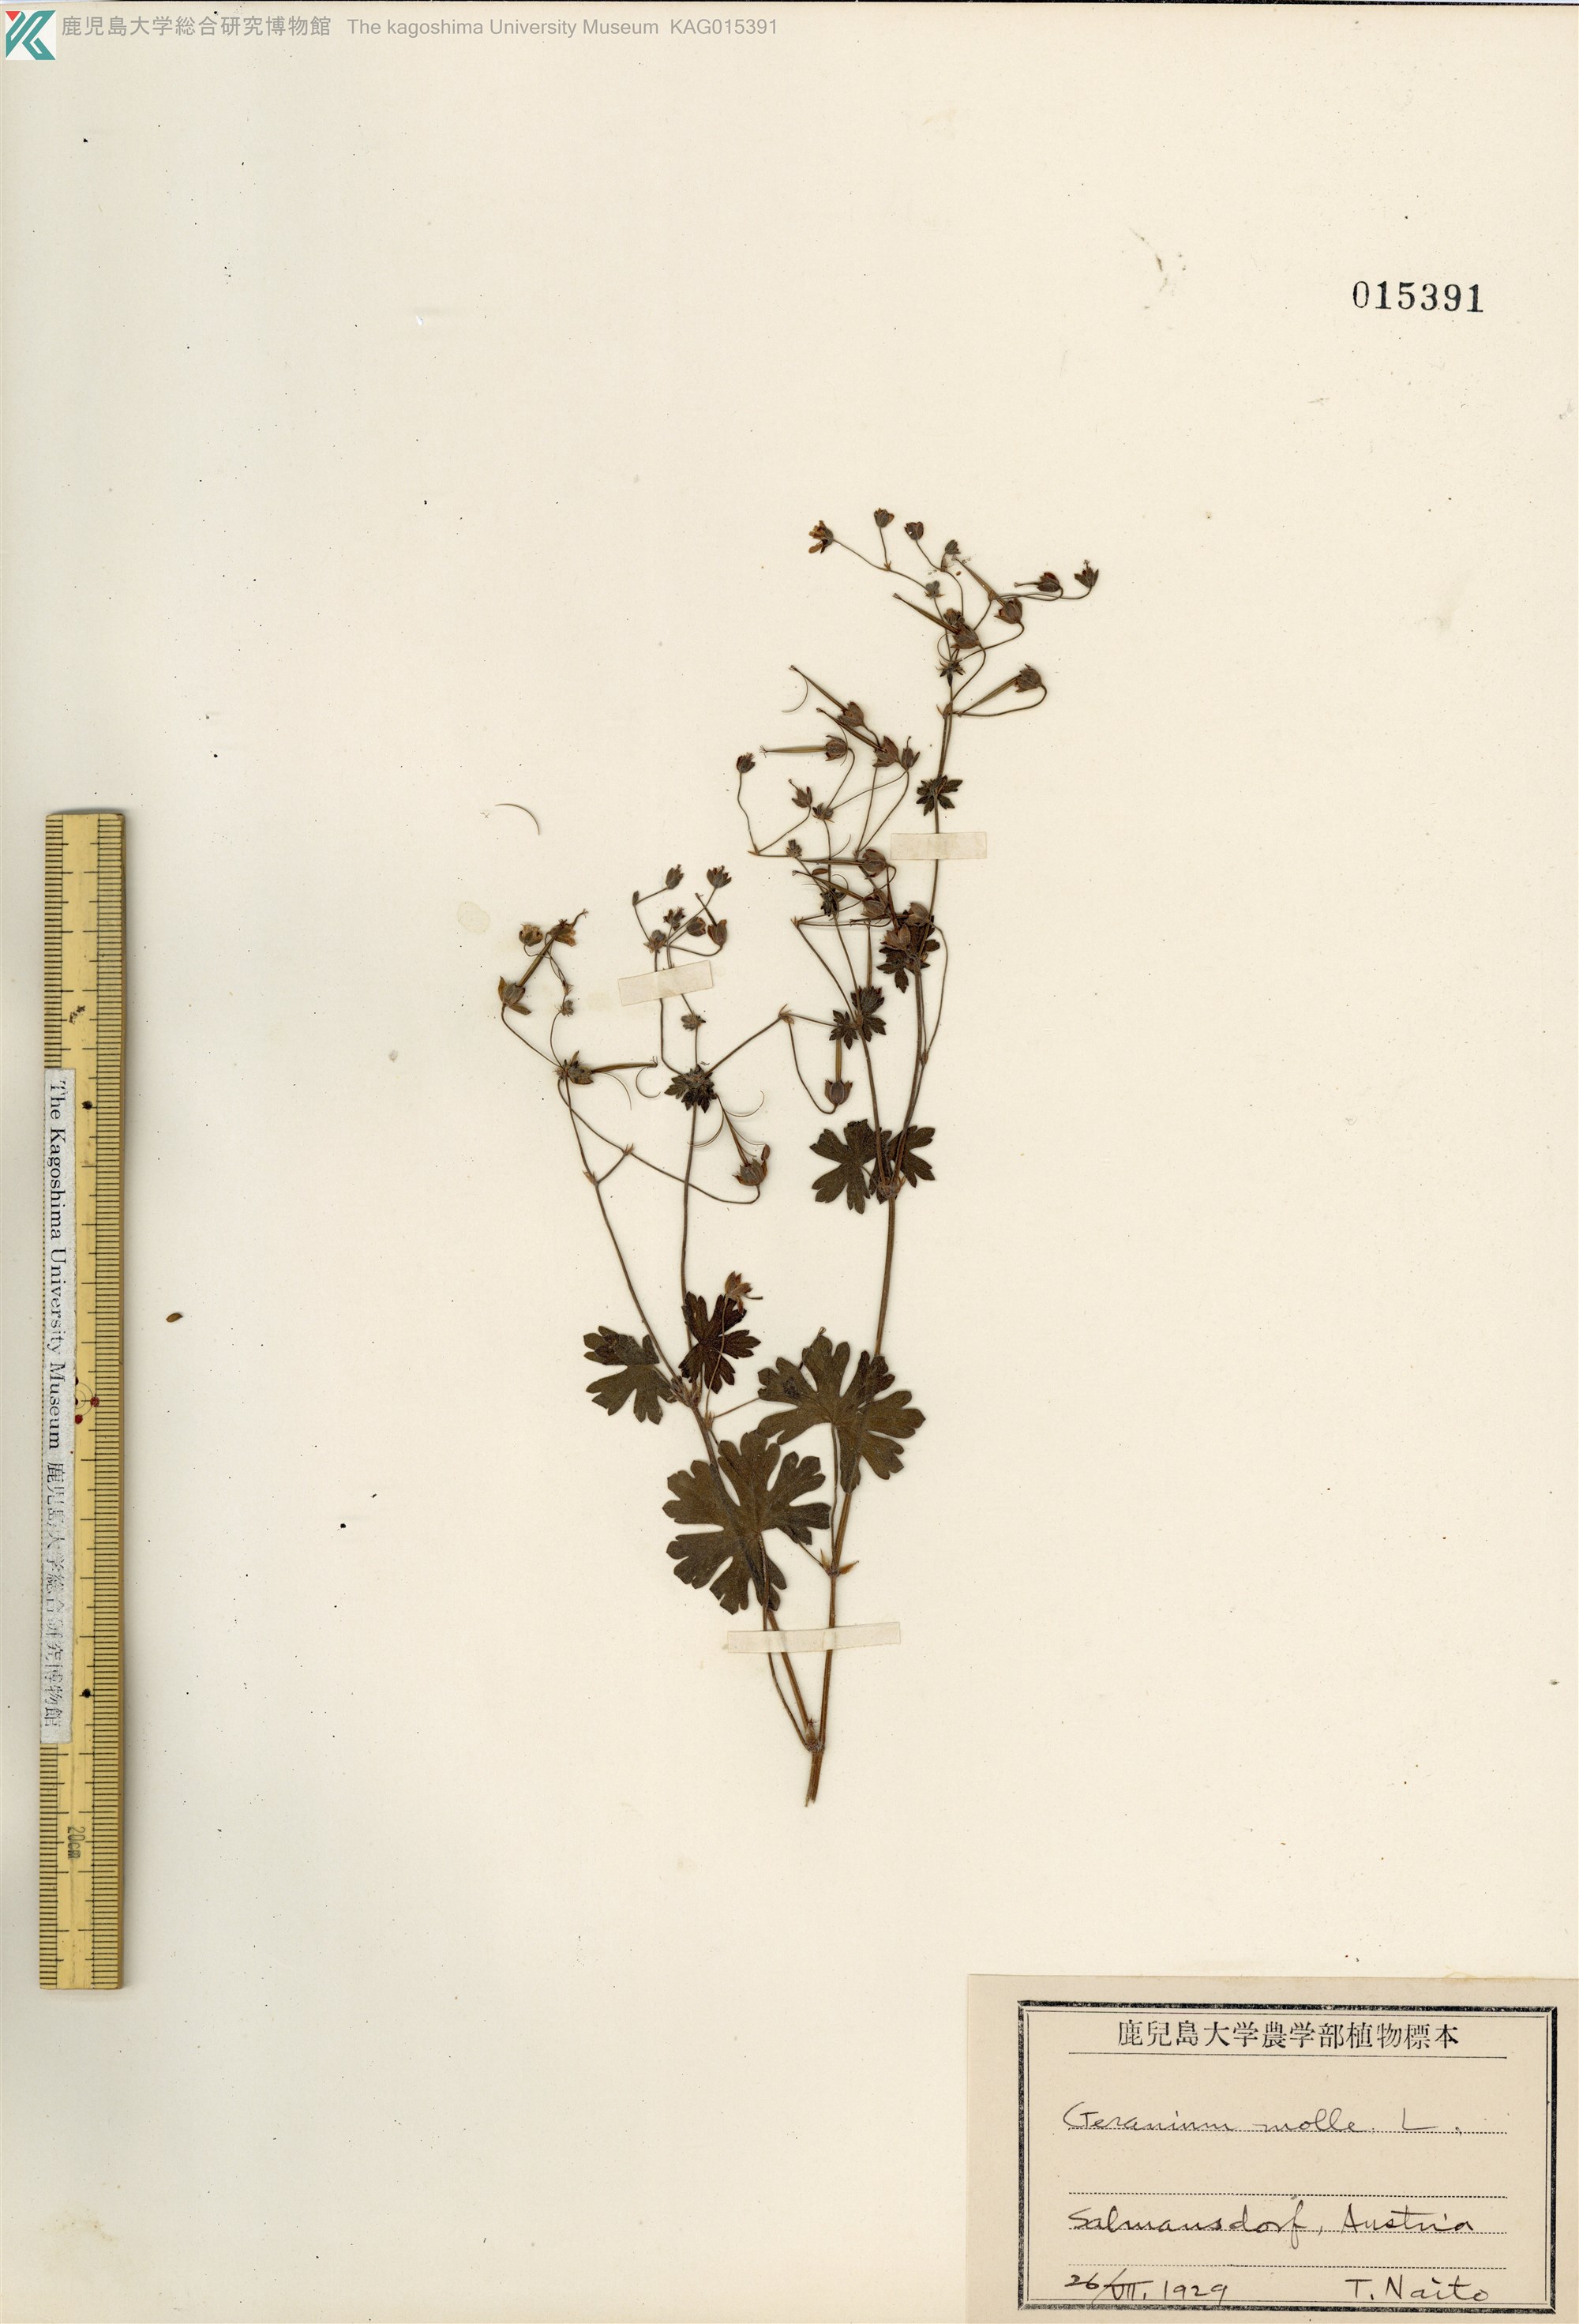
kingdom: Plantae
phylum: Tracheophyta
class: Magnoliopsida
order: Geraniales
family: Geraniaceae
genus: Geranium
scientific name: Geranium molle
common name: Dove's-foot crane's-bill
